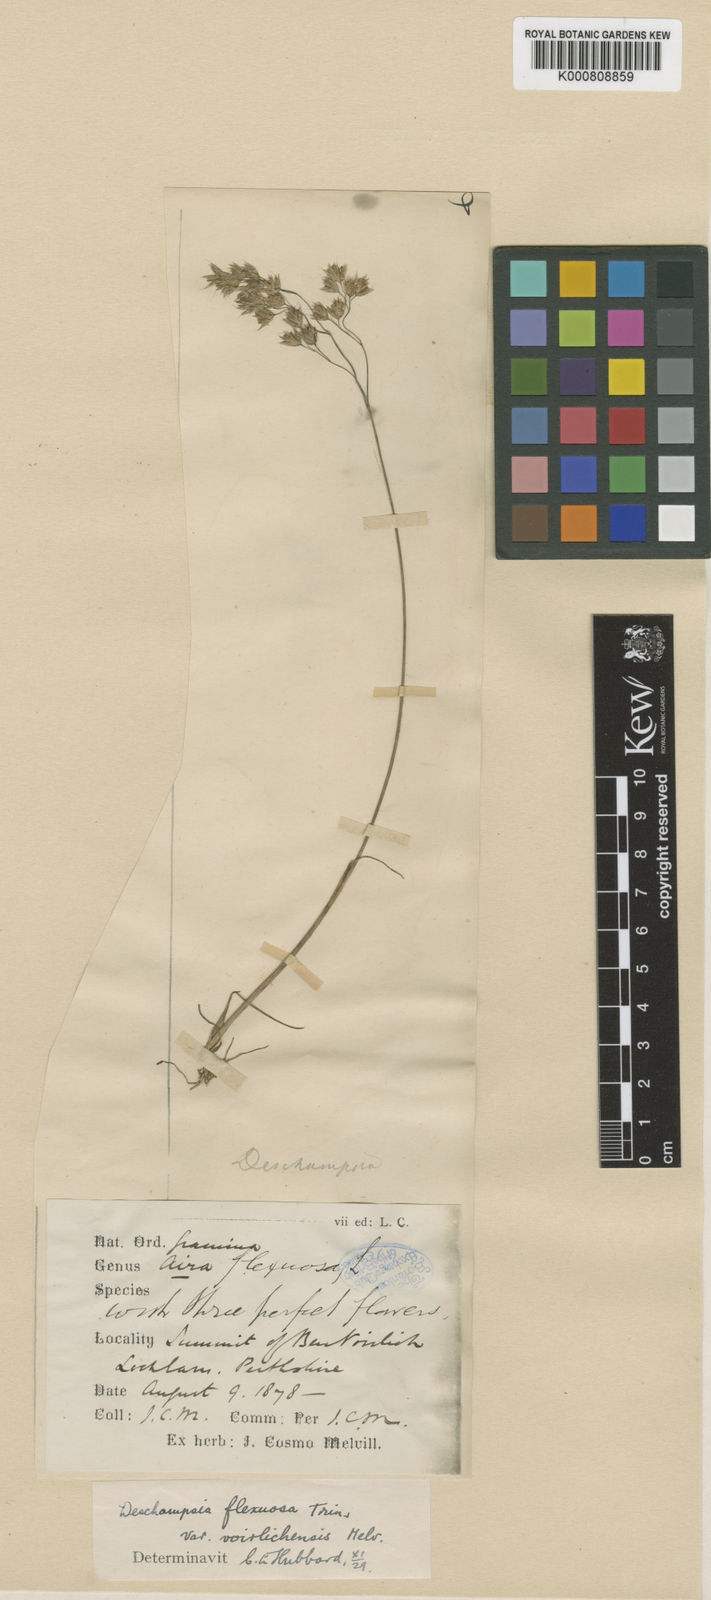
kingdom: Plantae
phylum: Tracheophyta
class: Liliopsida
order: Poales
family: Poaceae
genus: Avenella
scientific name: Avenella flexuosa
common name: Wavy hairgrass
